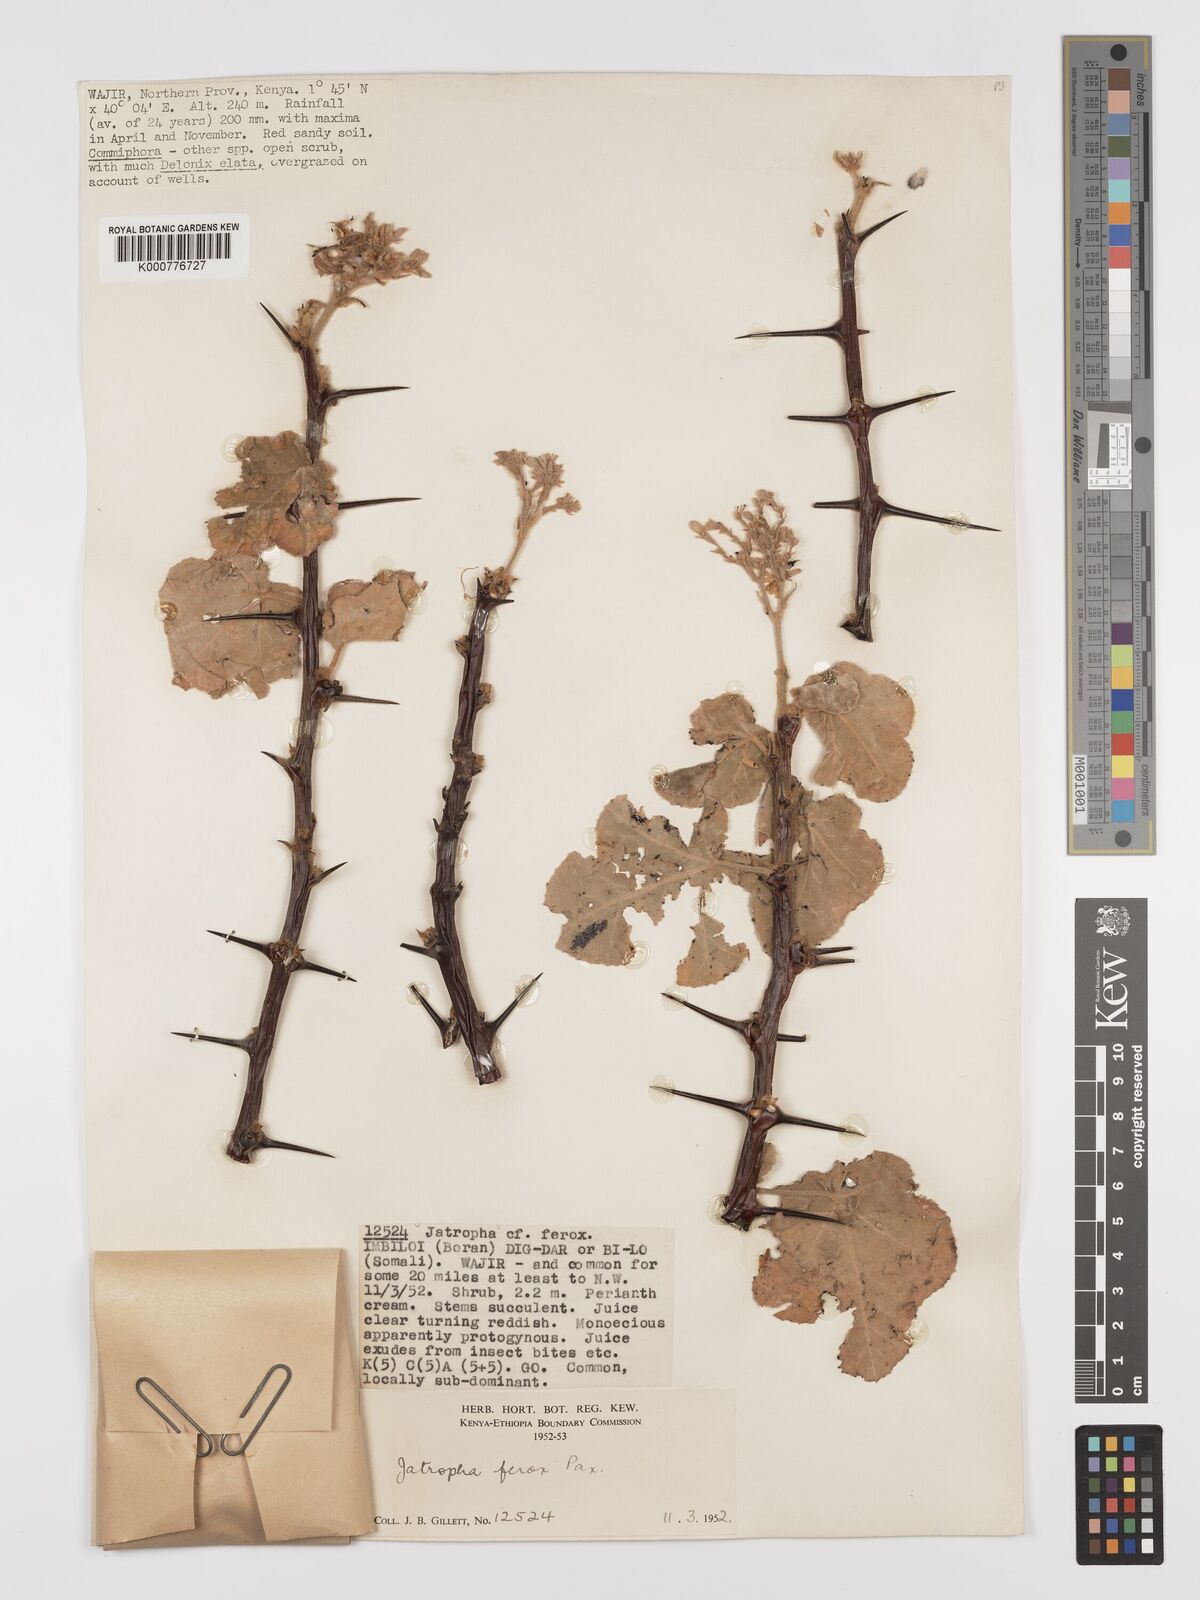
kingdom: Plantae
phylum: Tracheophyta
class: Magnoliopsida
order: Malpighiales
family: Euphorbiaceae
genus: Jatropha
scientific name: Jatropha dichtar
